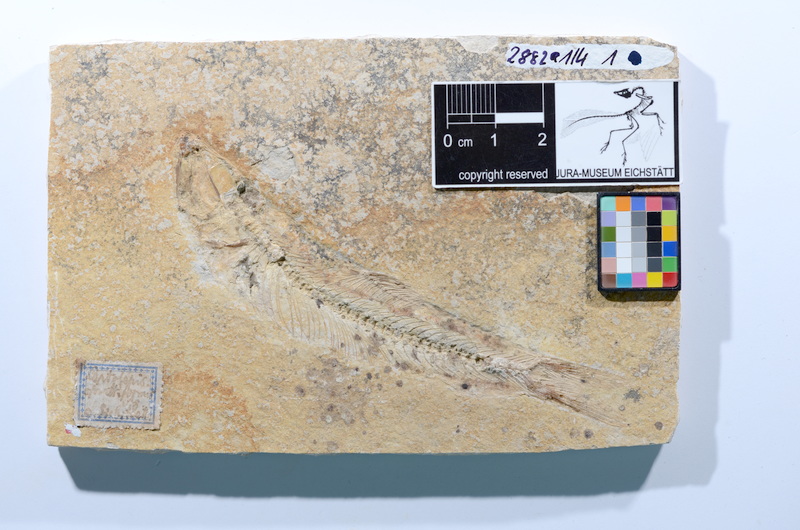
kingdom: Animalia
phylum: Chordata
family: Ascalaboidae
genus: Ascalabos
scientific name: Ascalabos voithii
